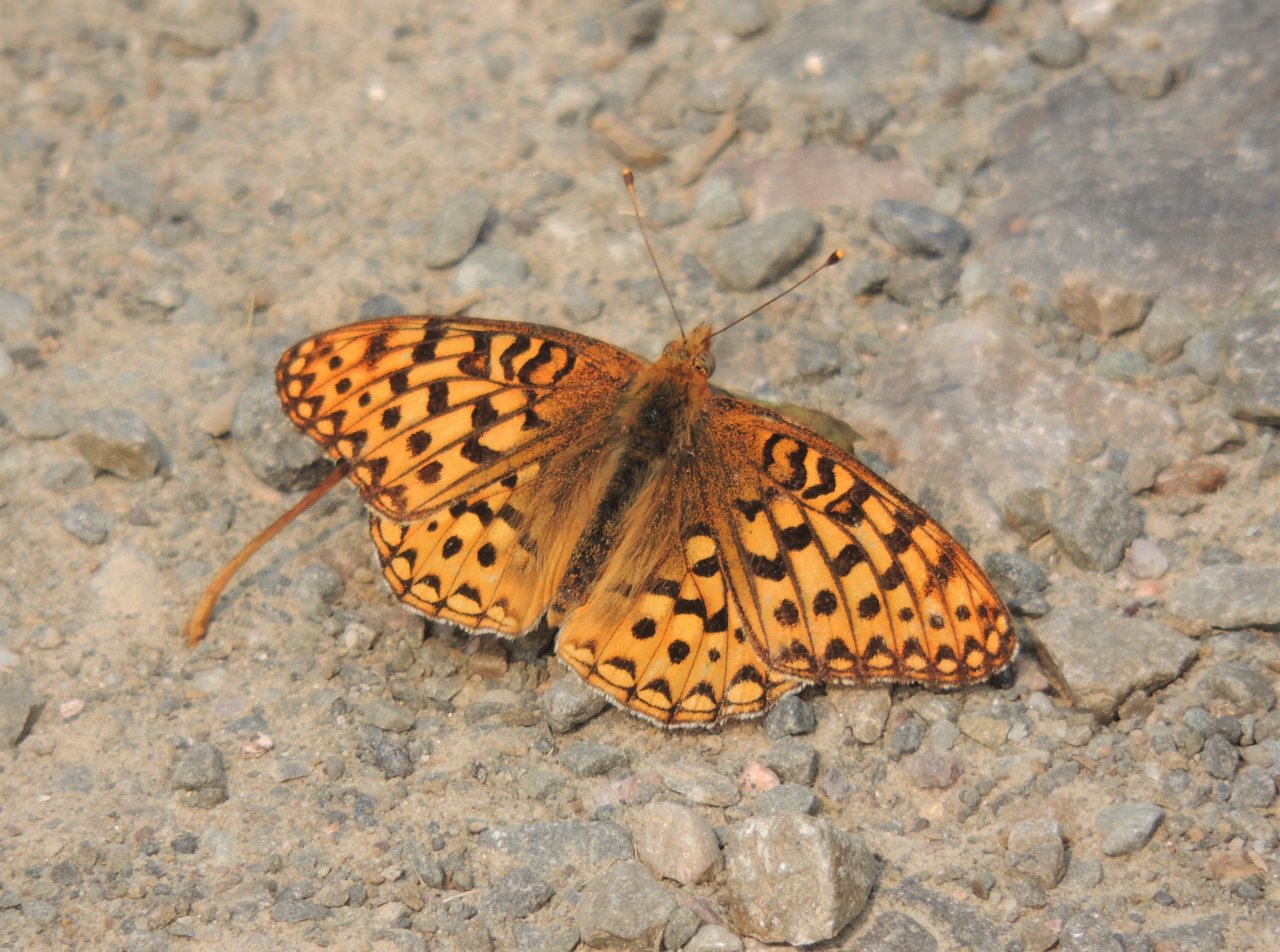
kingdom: Animalia
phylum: Arthropoda
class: Insecta
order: Lepidoptera
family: Nymphalidae
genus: Speyeria
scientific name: Speyeria hydaspe
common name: Hydaspe Fritillary
